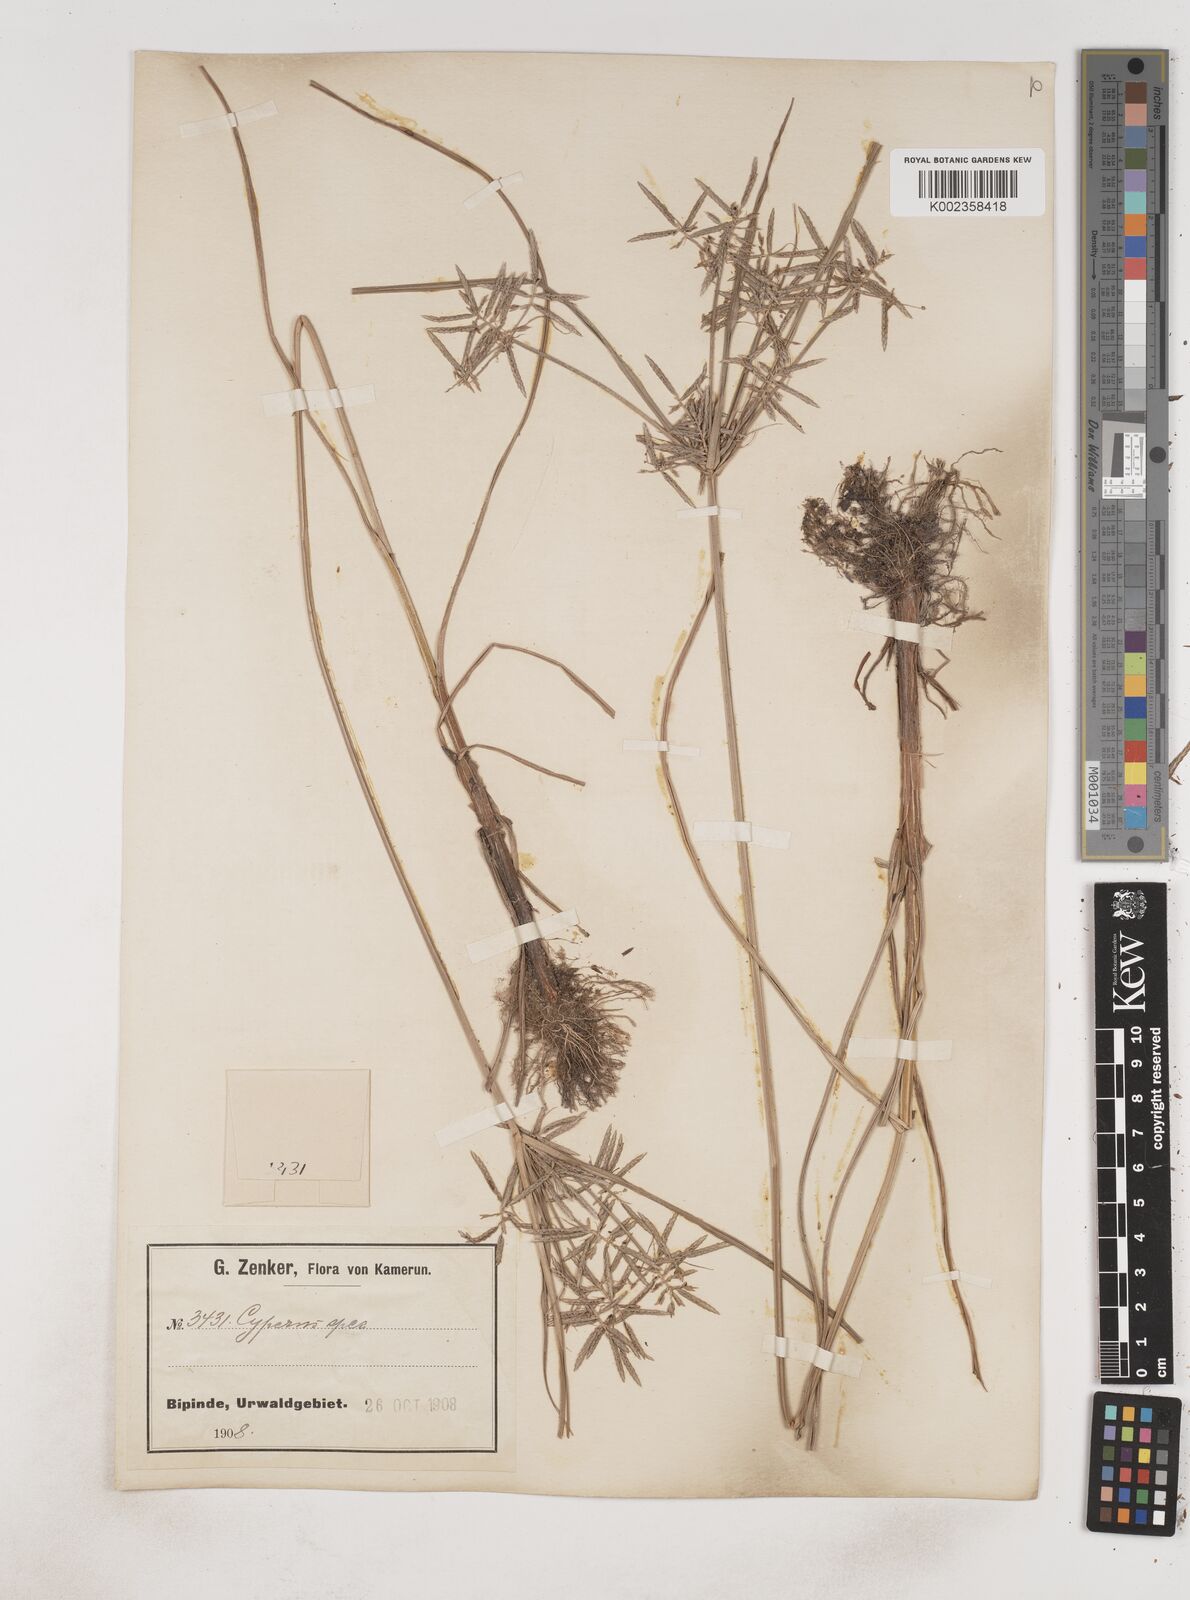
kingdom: Plantae
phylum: Tracheophyta
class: Liliopsida
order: Poales
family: Cyperaceae
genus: Cyperus
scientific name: Cyperus sphacelatus
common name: Roadside flatsedge
